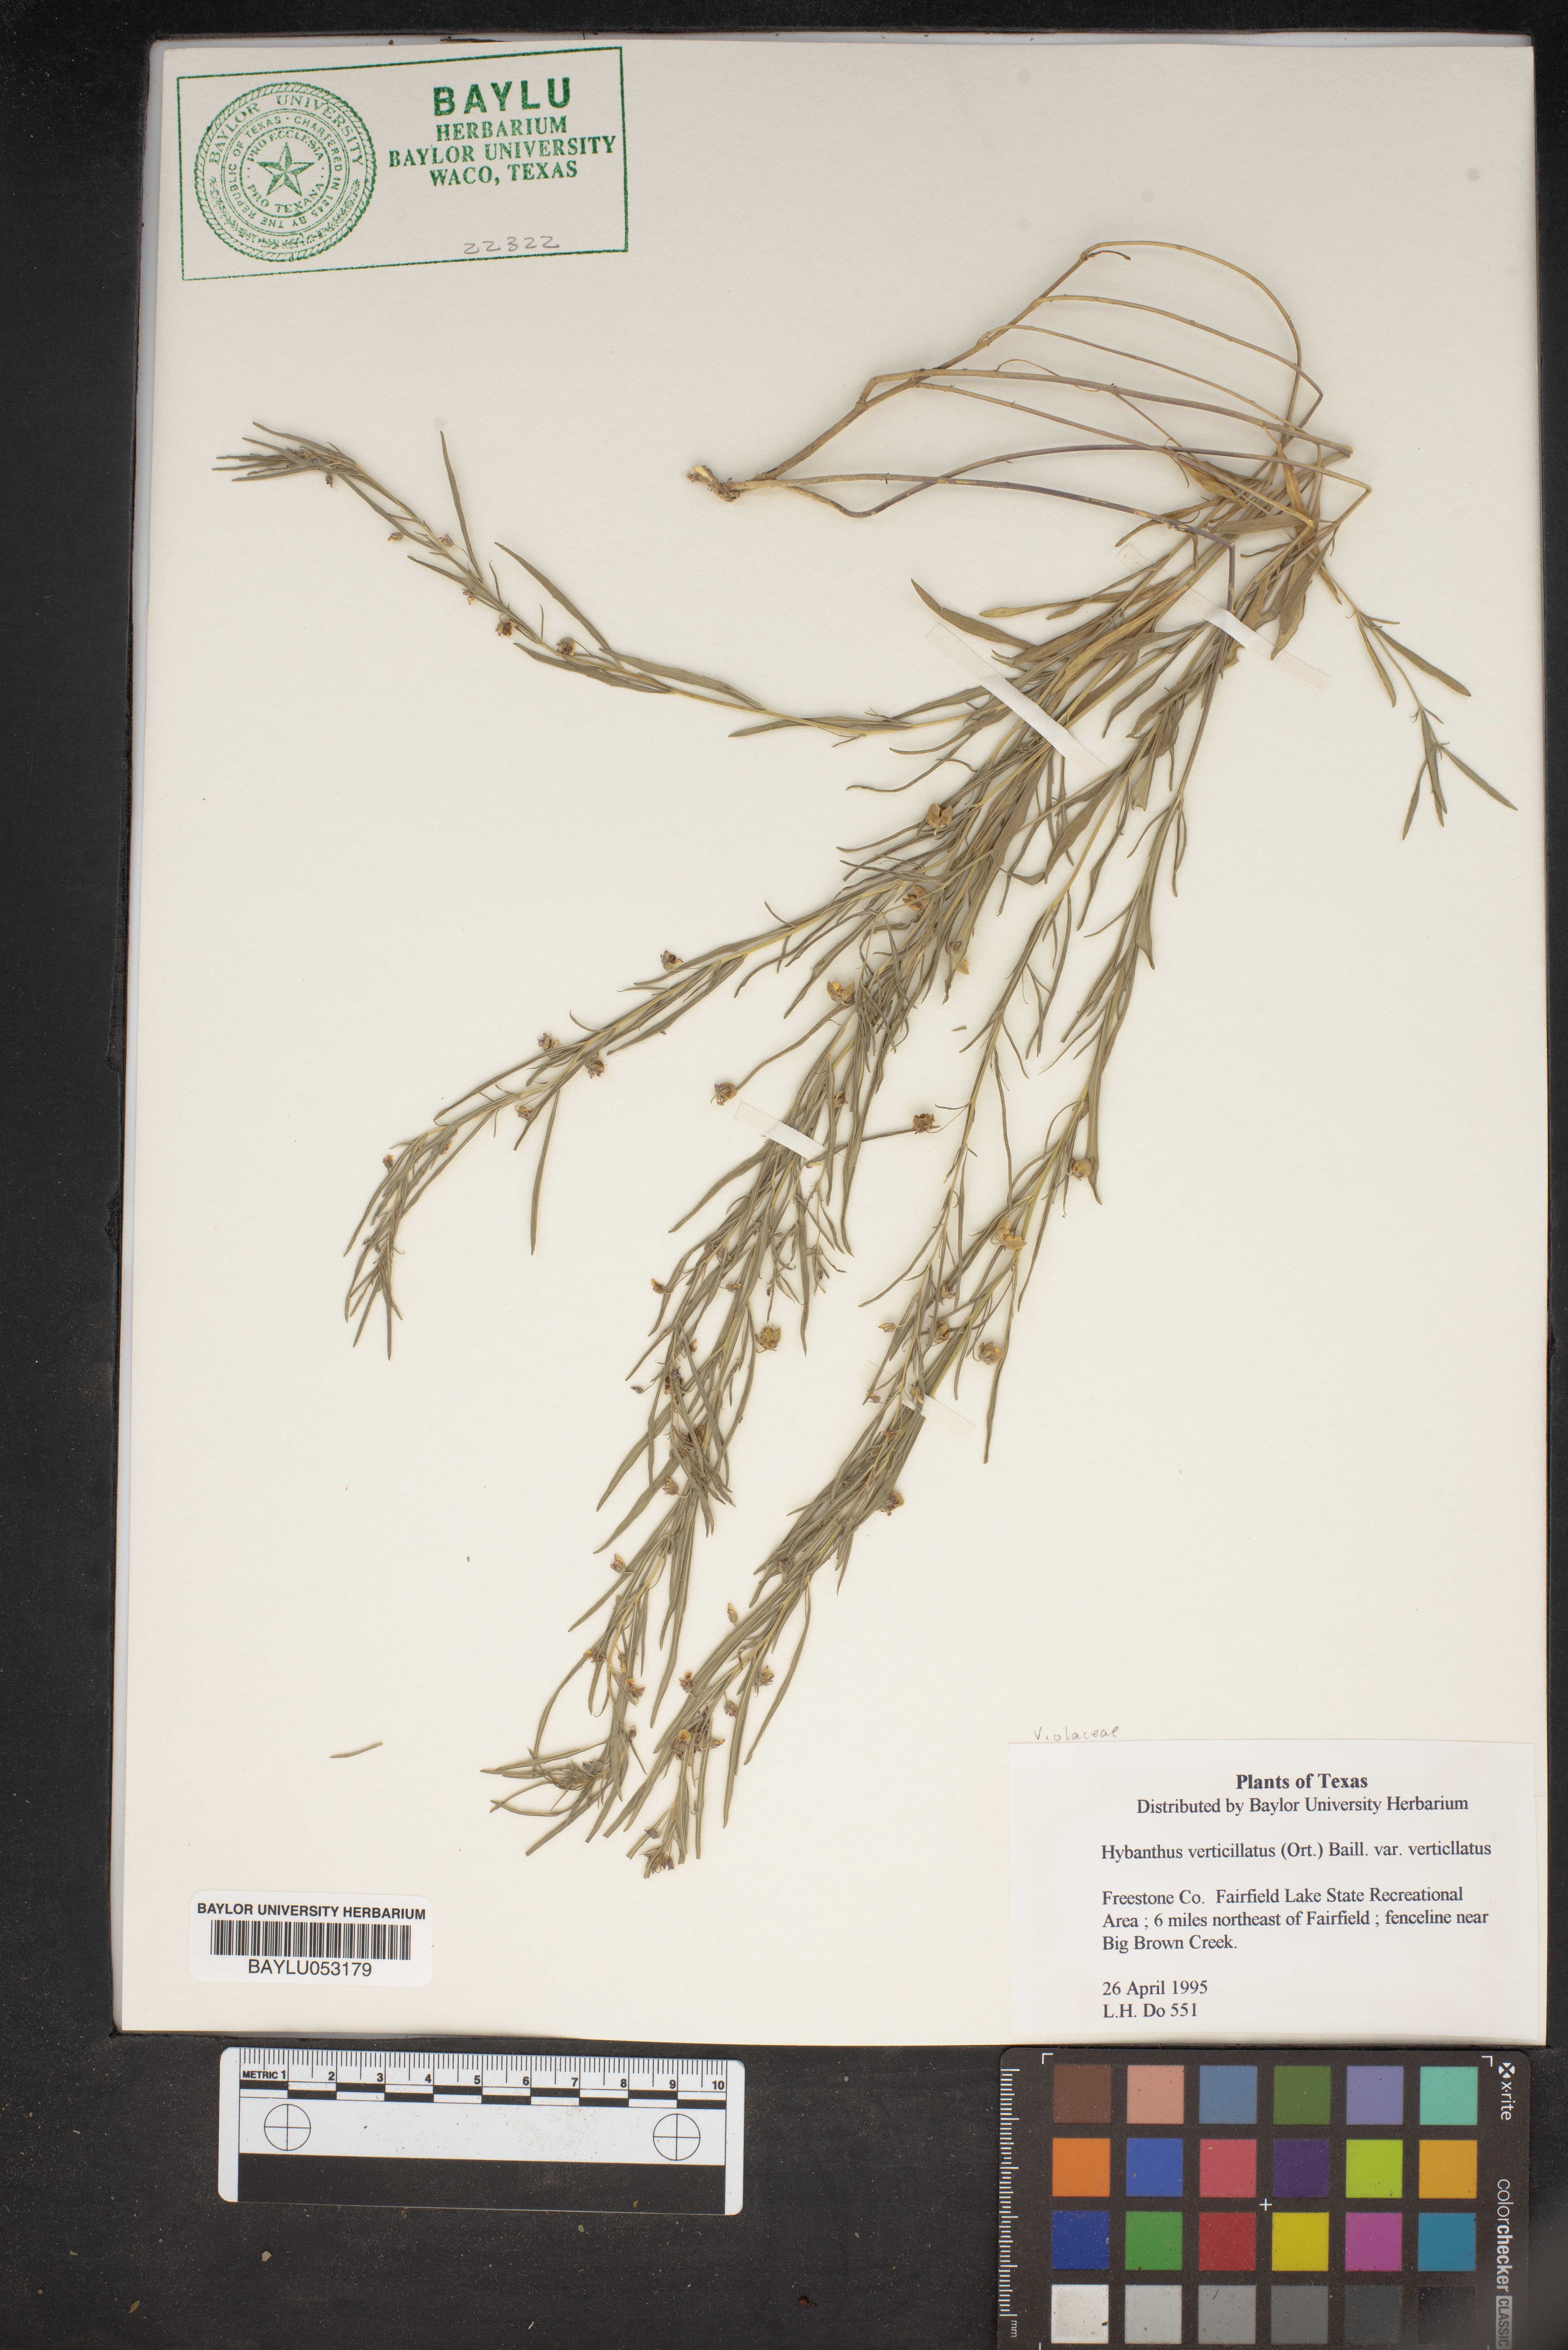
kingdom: Plantae
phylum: Tracheophyta
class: Magnoliopsida
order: Malpighiales
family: Violaceae
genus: Pombalia
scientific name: Pombalia verticillata
